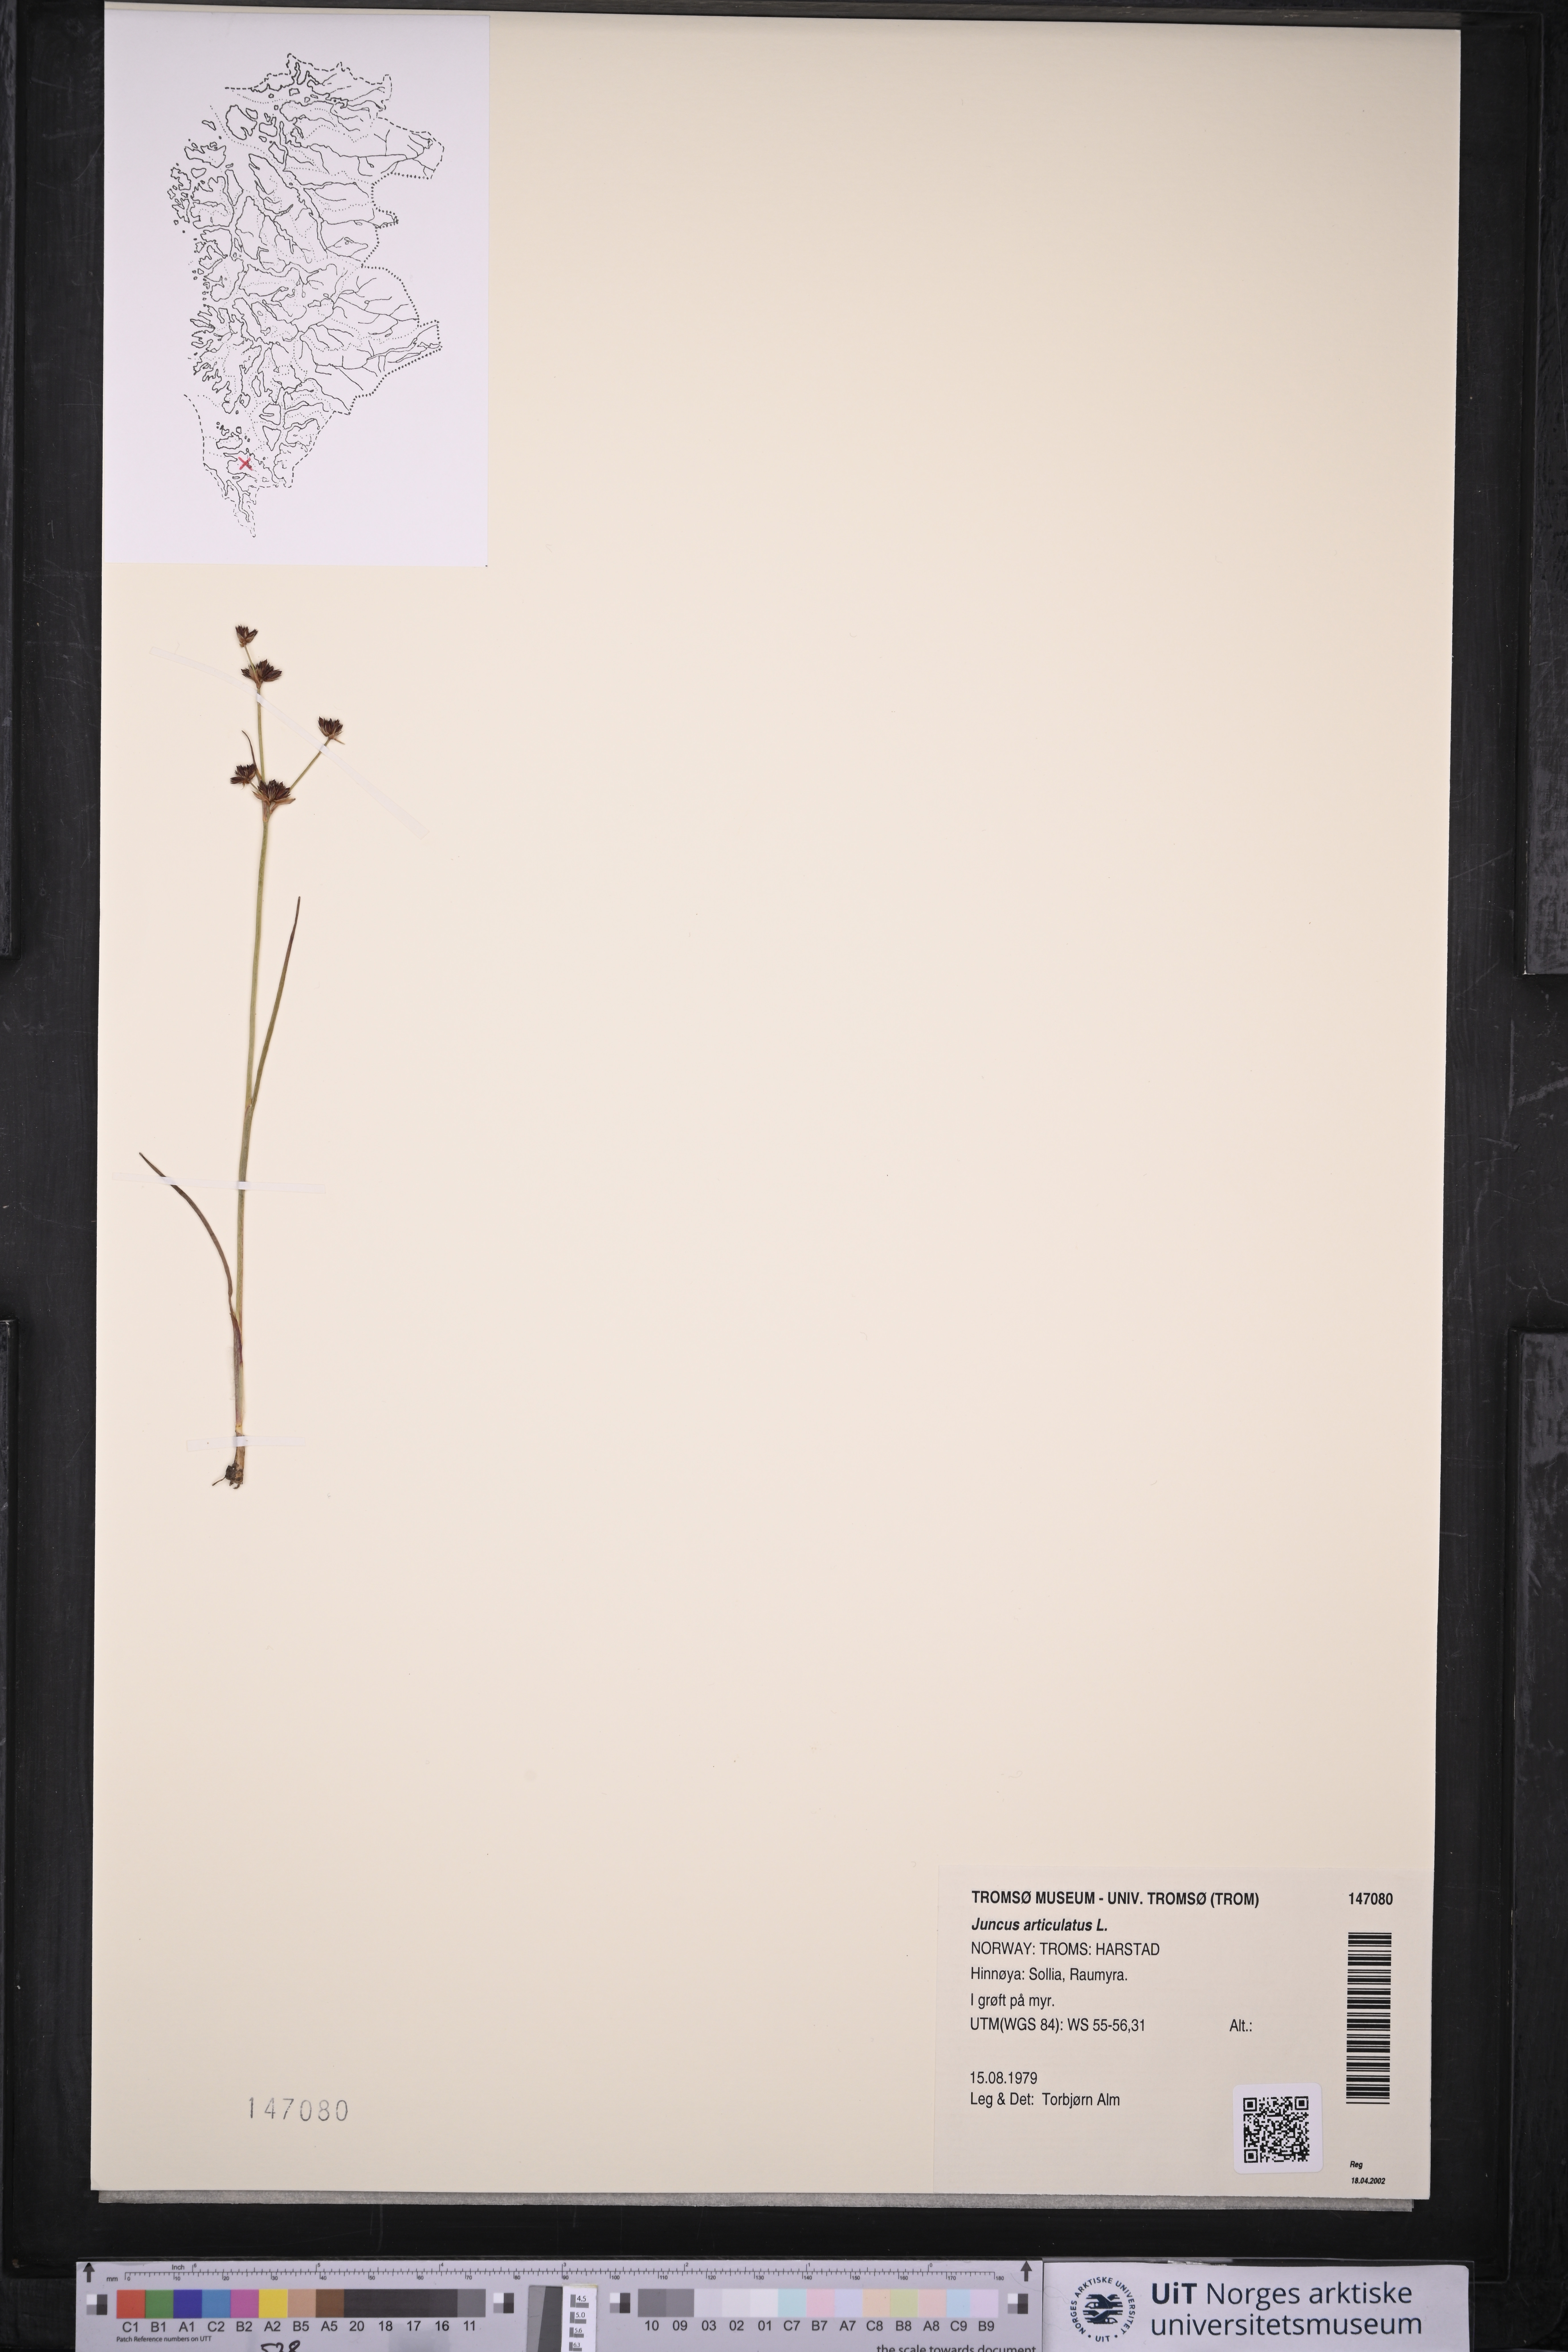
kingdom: Plantae
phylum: Tracheophyta
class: Liliopsida
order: Poales
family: Juncaceae
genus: Juncus
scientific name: Juncus articulatus
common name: Jointed rush
